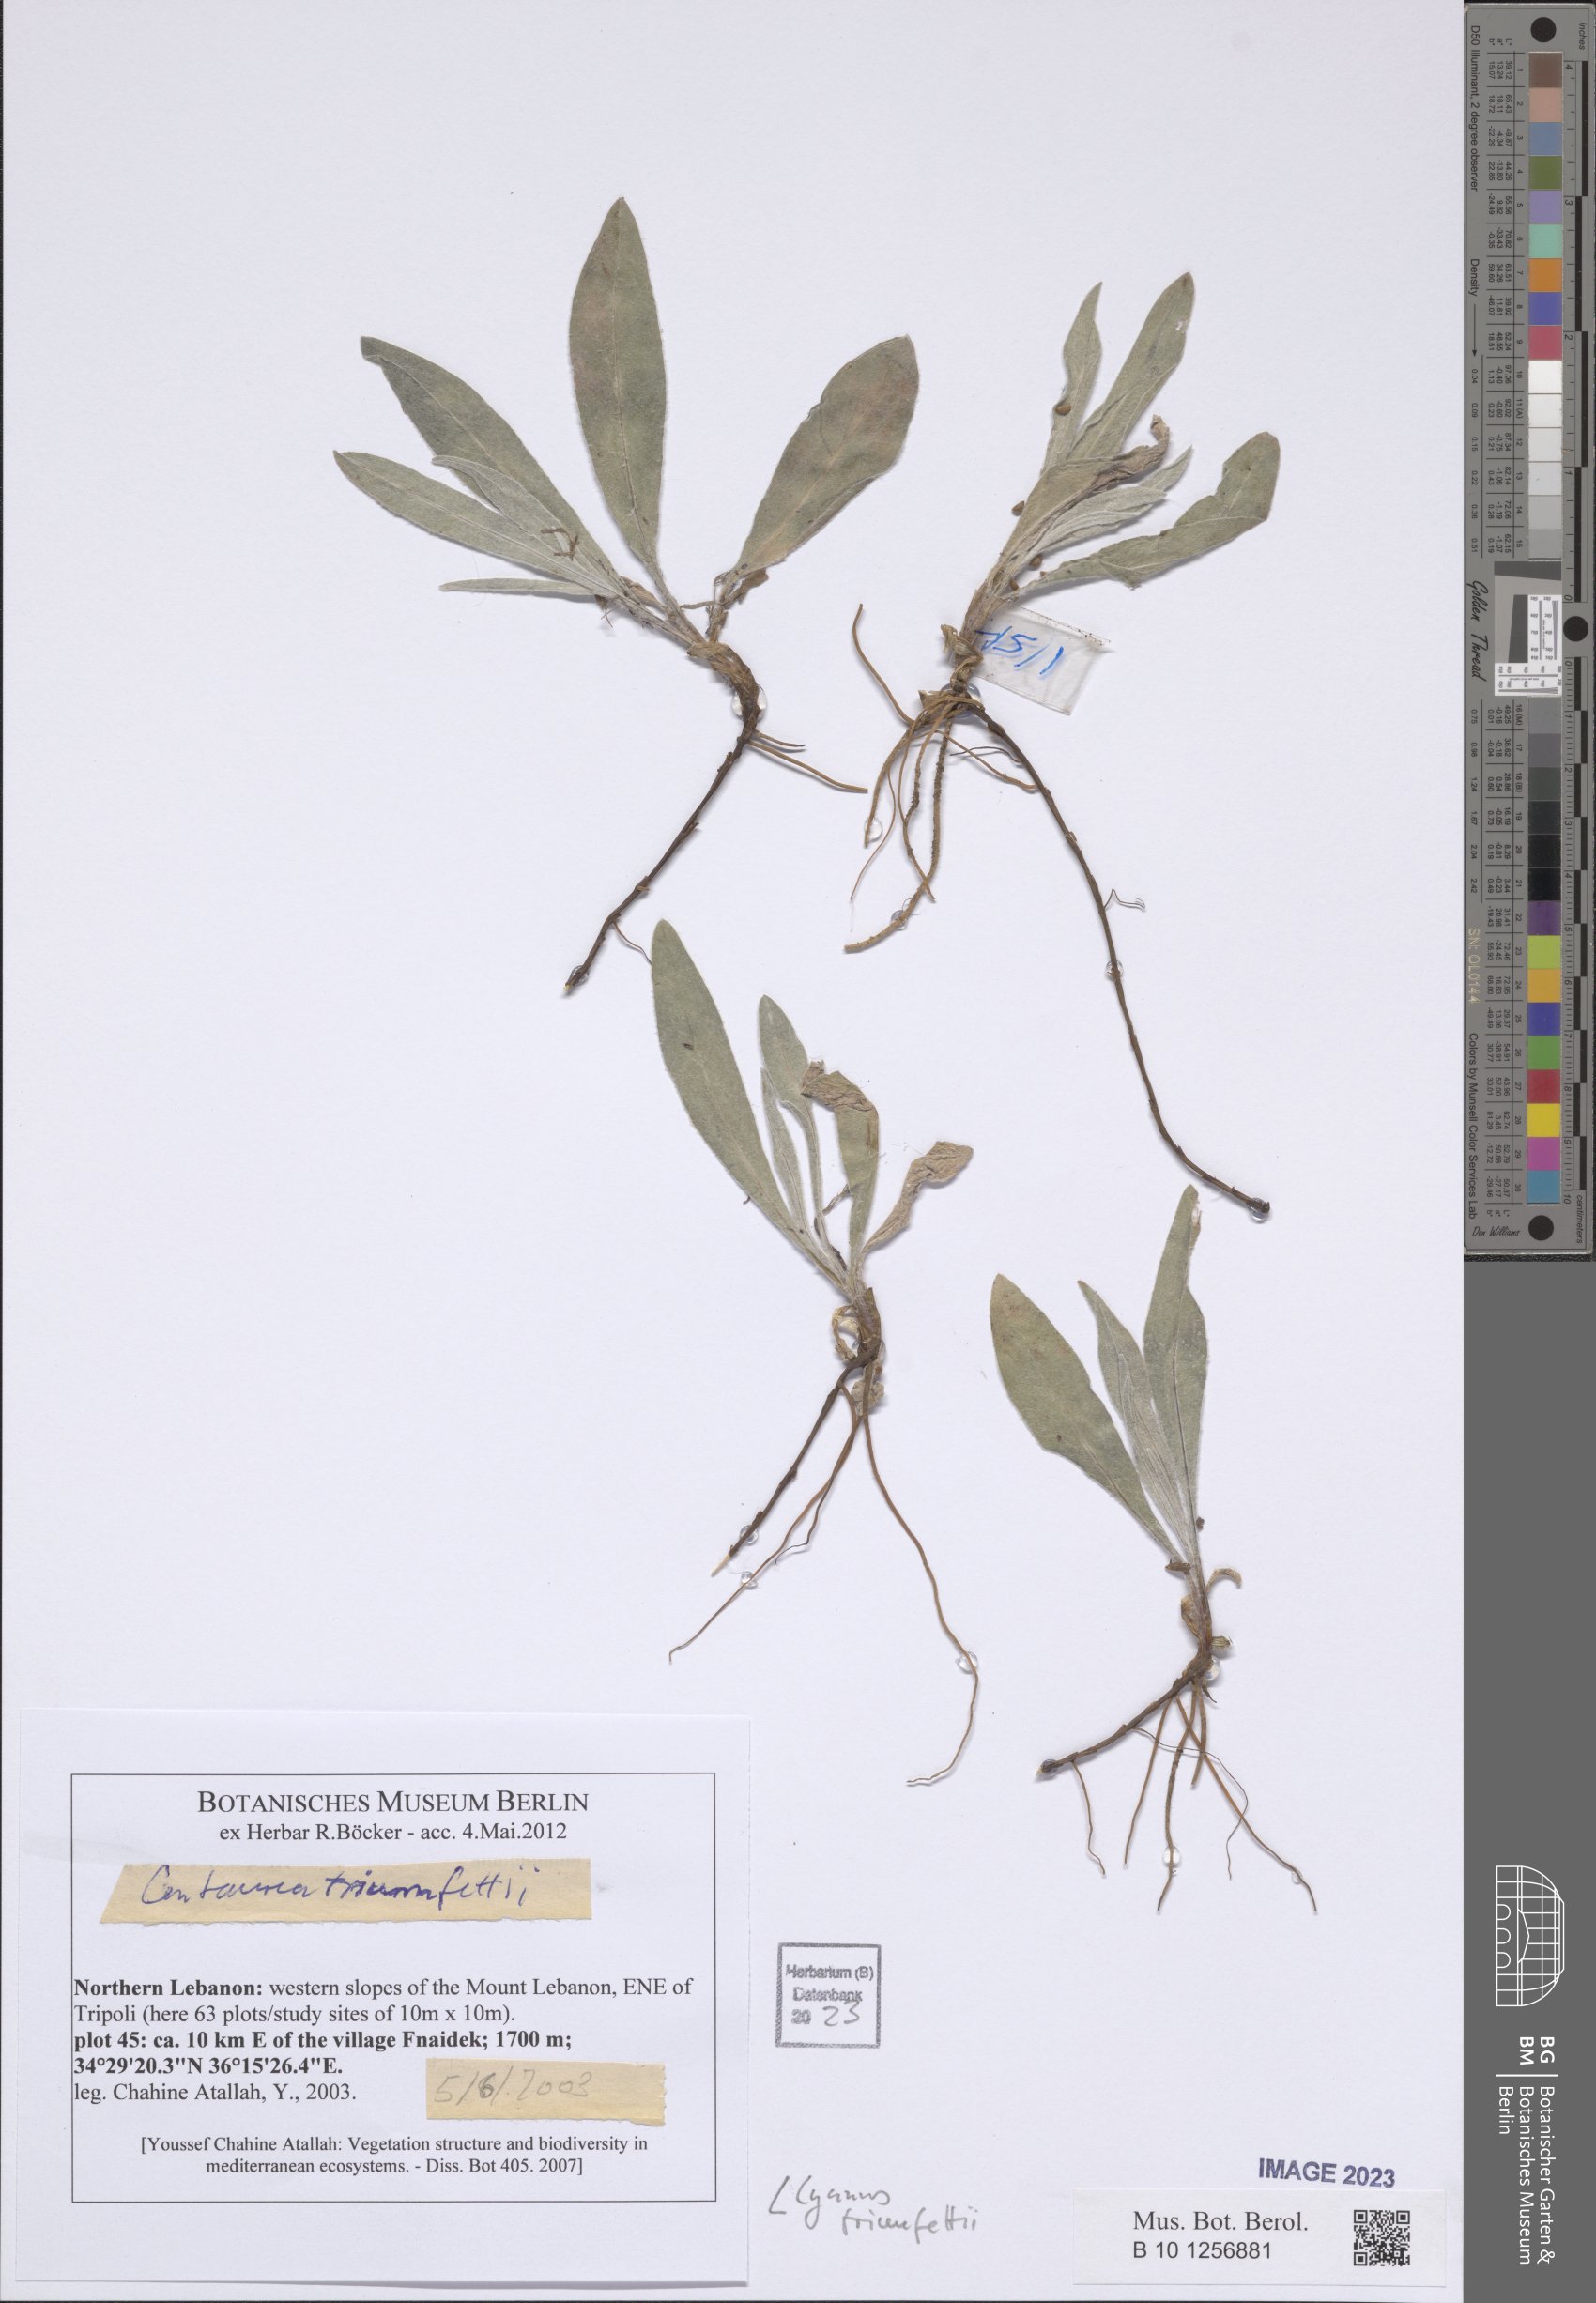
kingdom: Plantae
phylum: Tracheophyta
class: Magnoliopsida
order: Asterales
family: Asteraceae
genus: Centaurea
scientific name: Centaurea triumfettii
